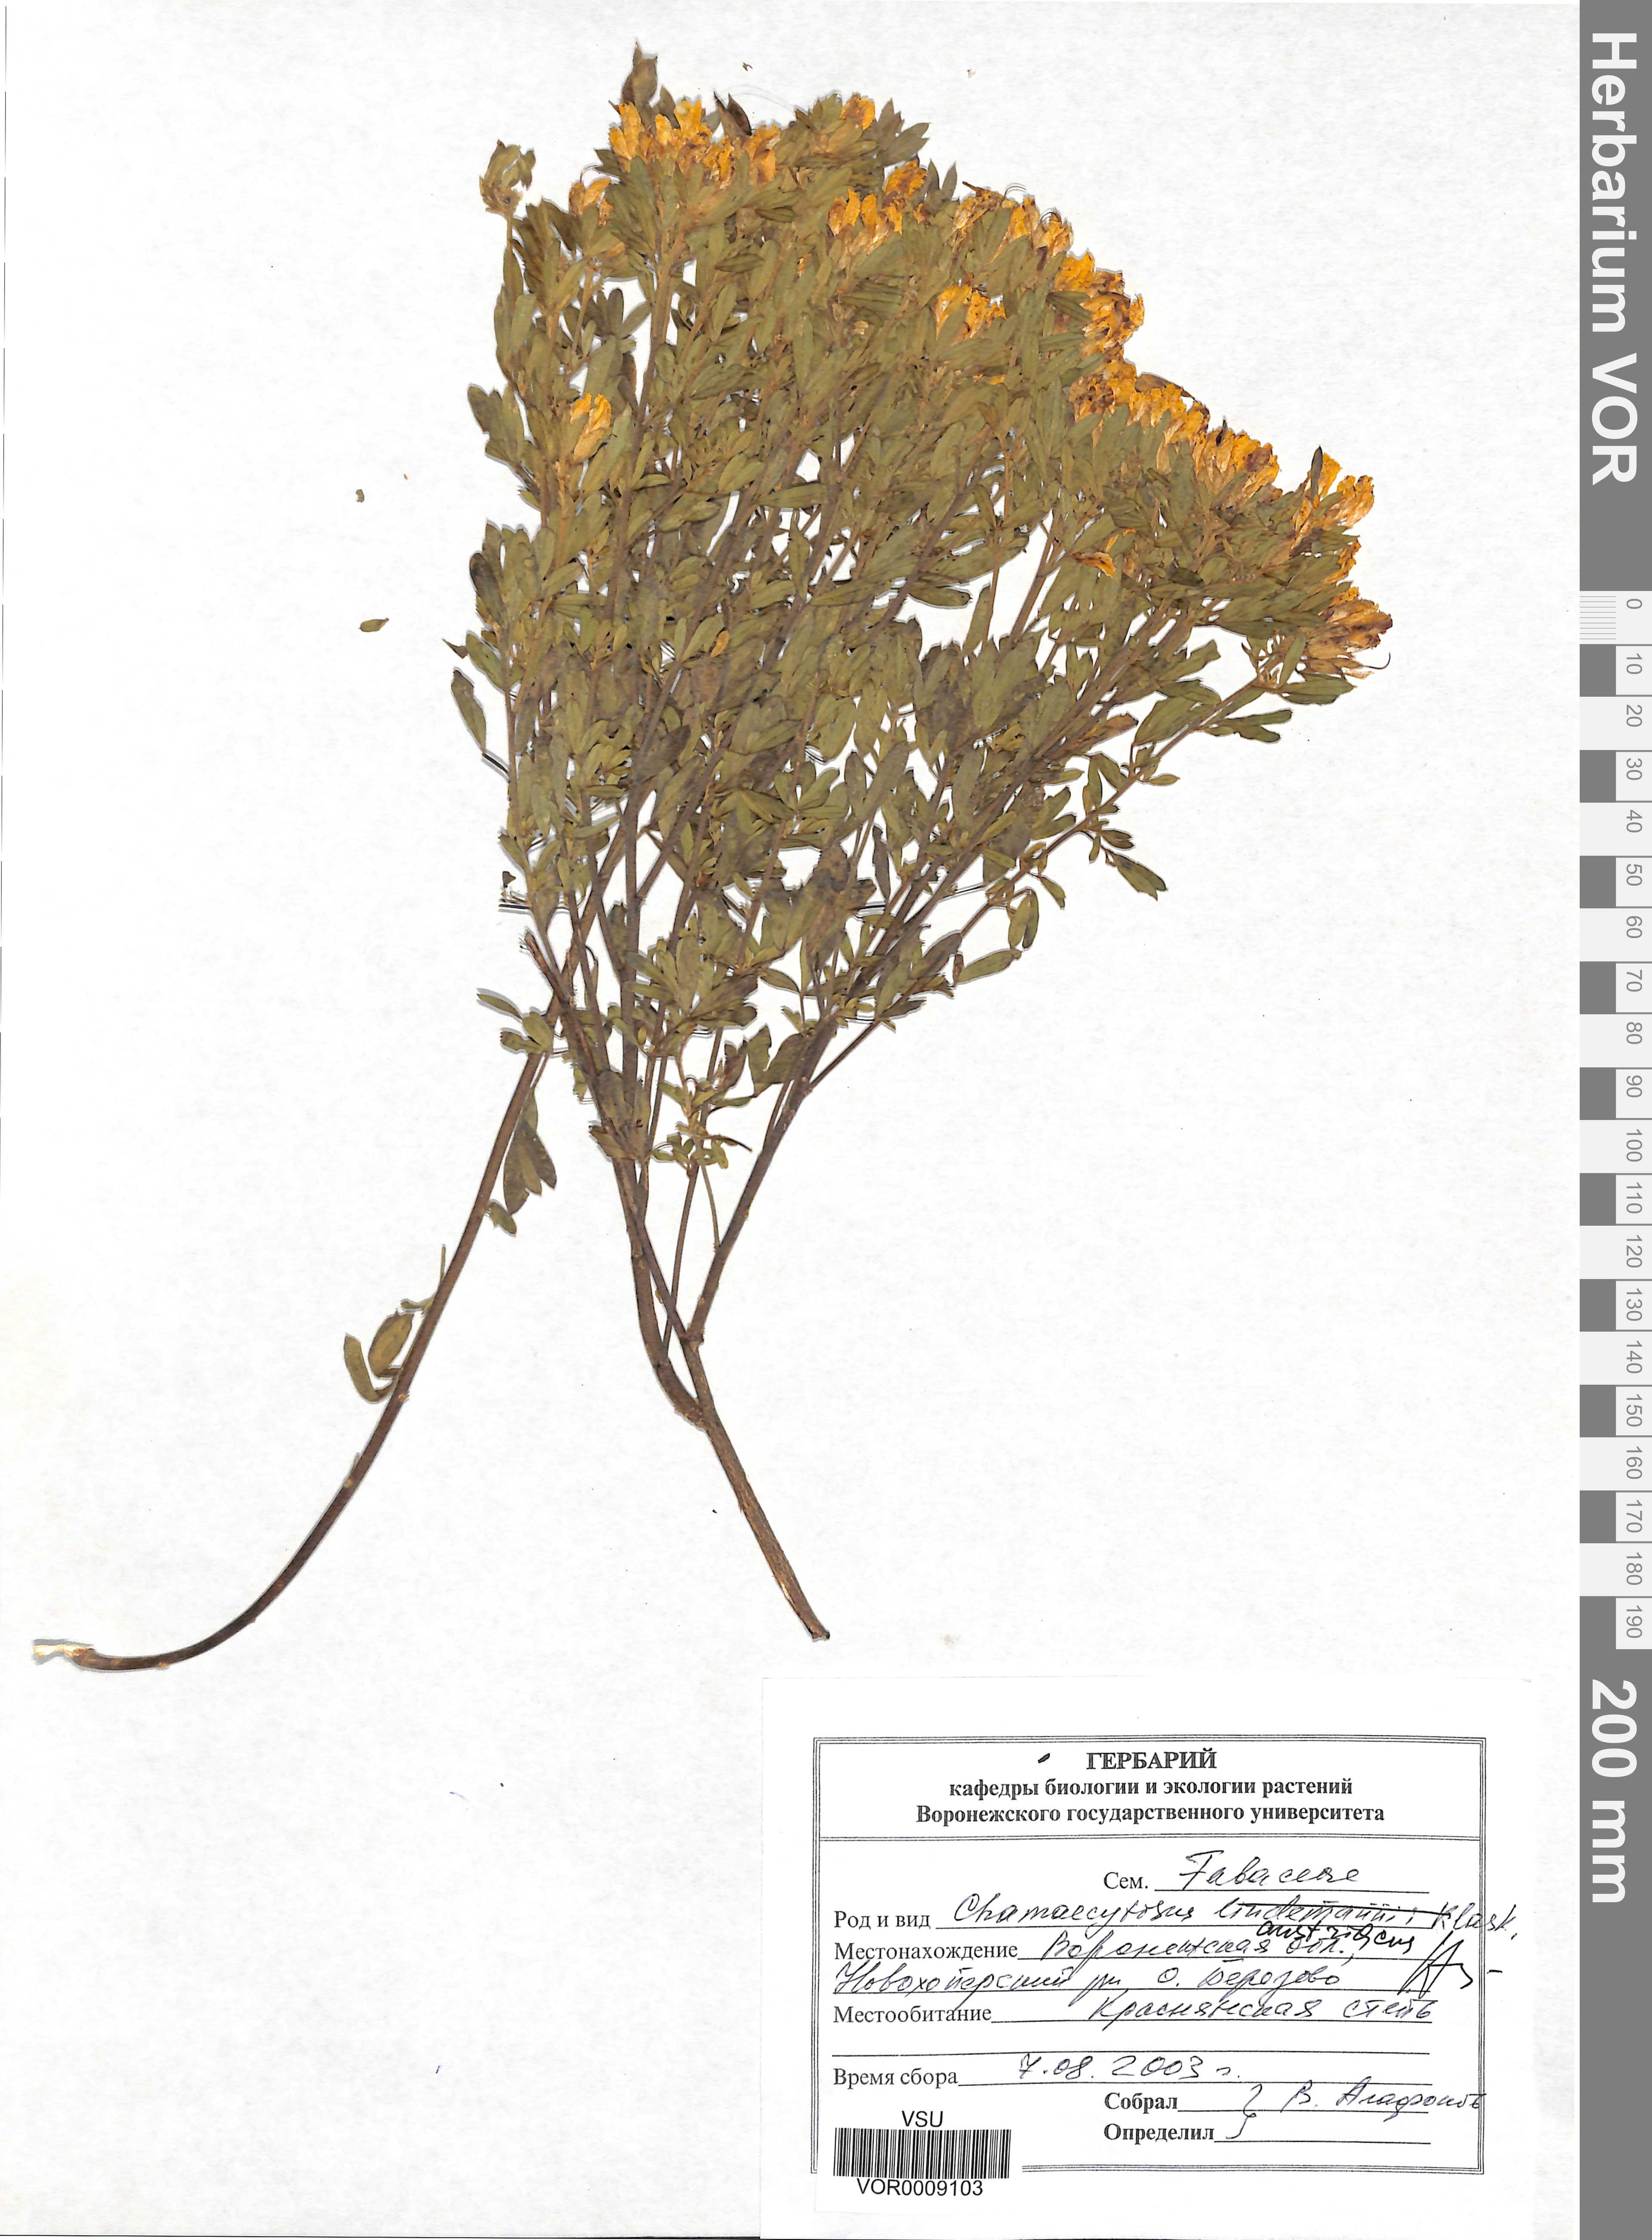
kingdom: Plantae
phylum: Tracheophyta
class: Magnoliopsida
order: Fabales
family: Fabaceae
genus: Chamaecytisus
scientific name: Chamaecytisus austriacus
